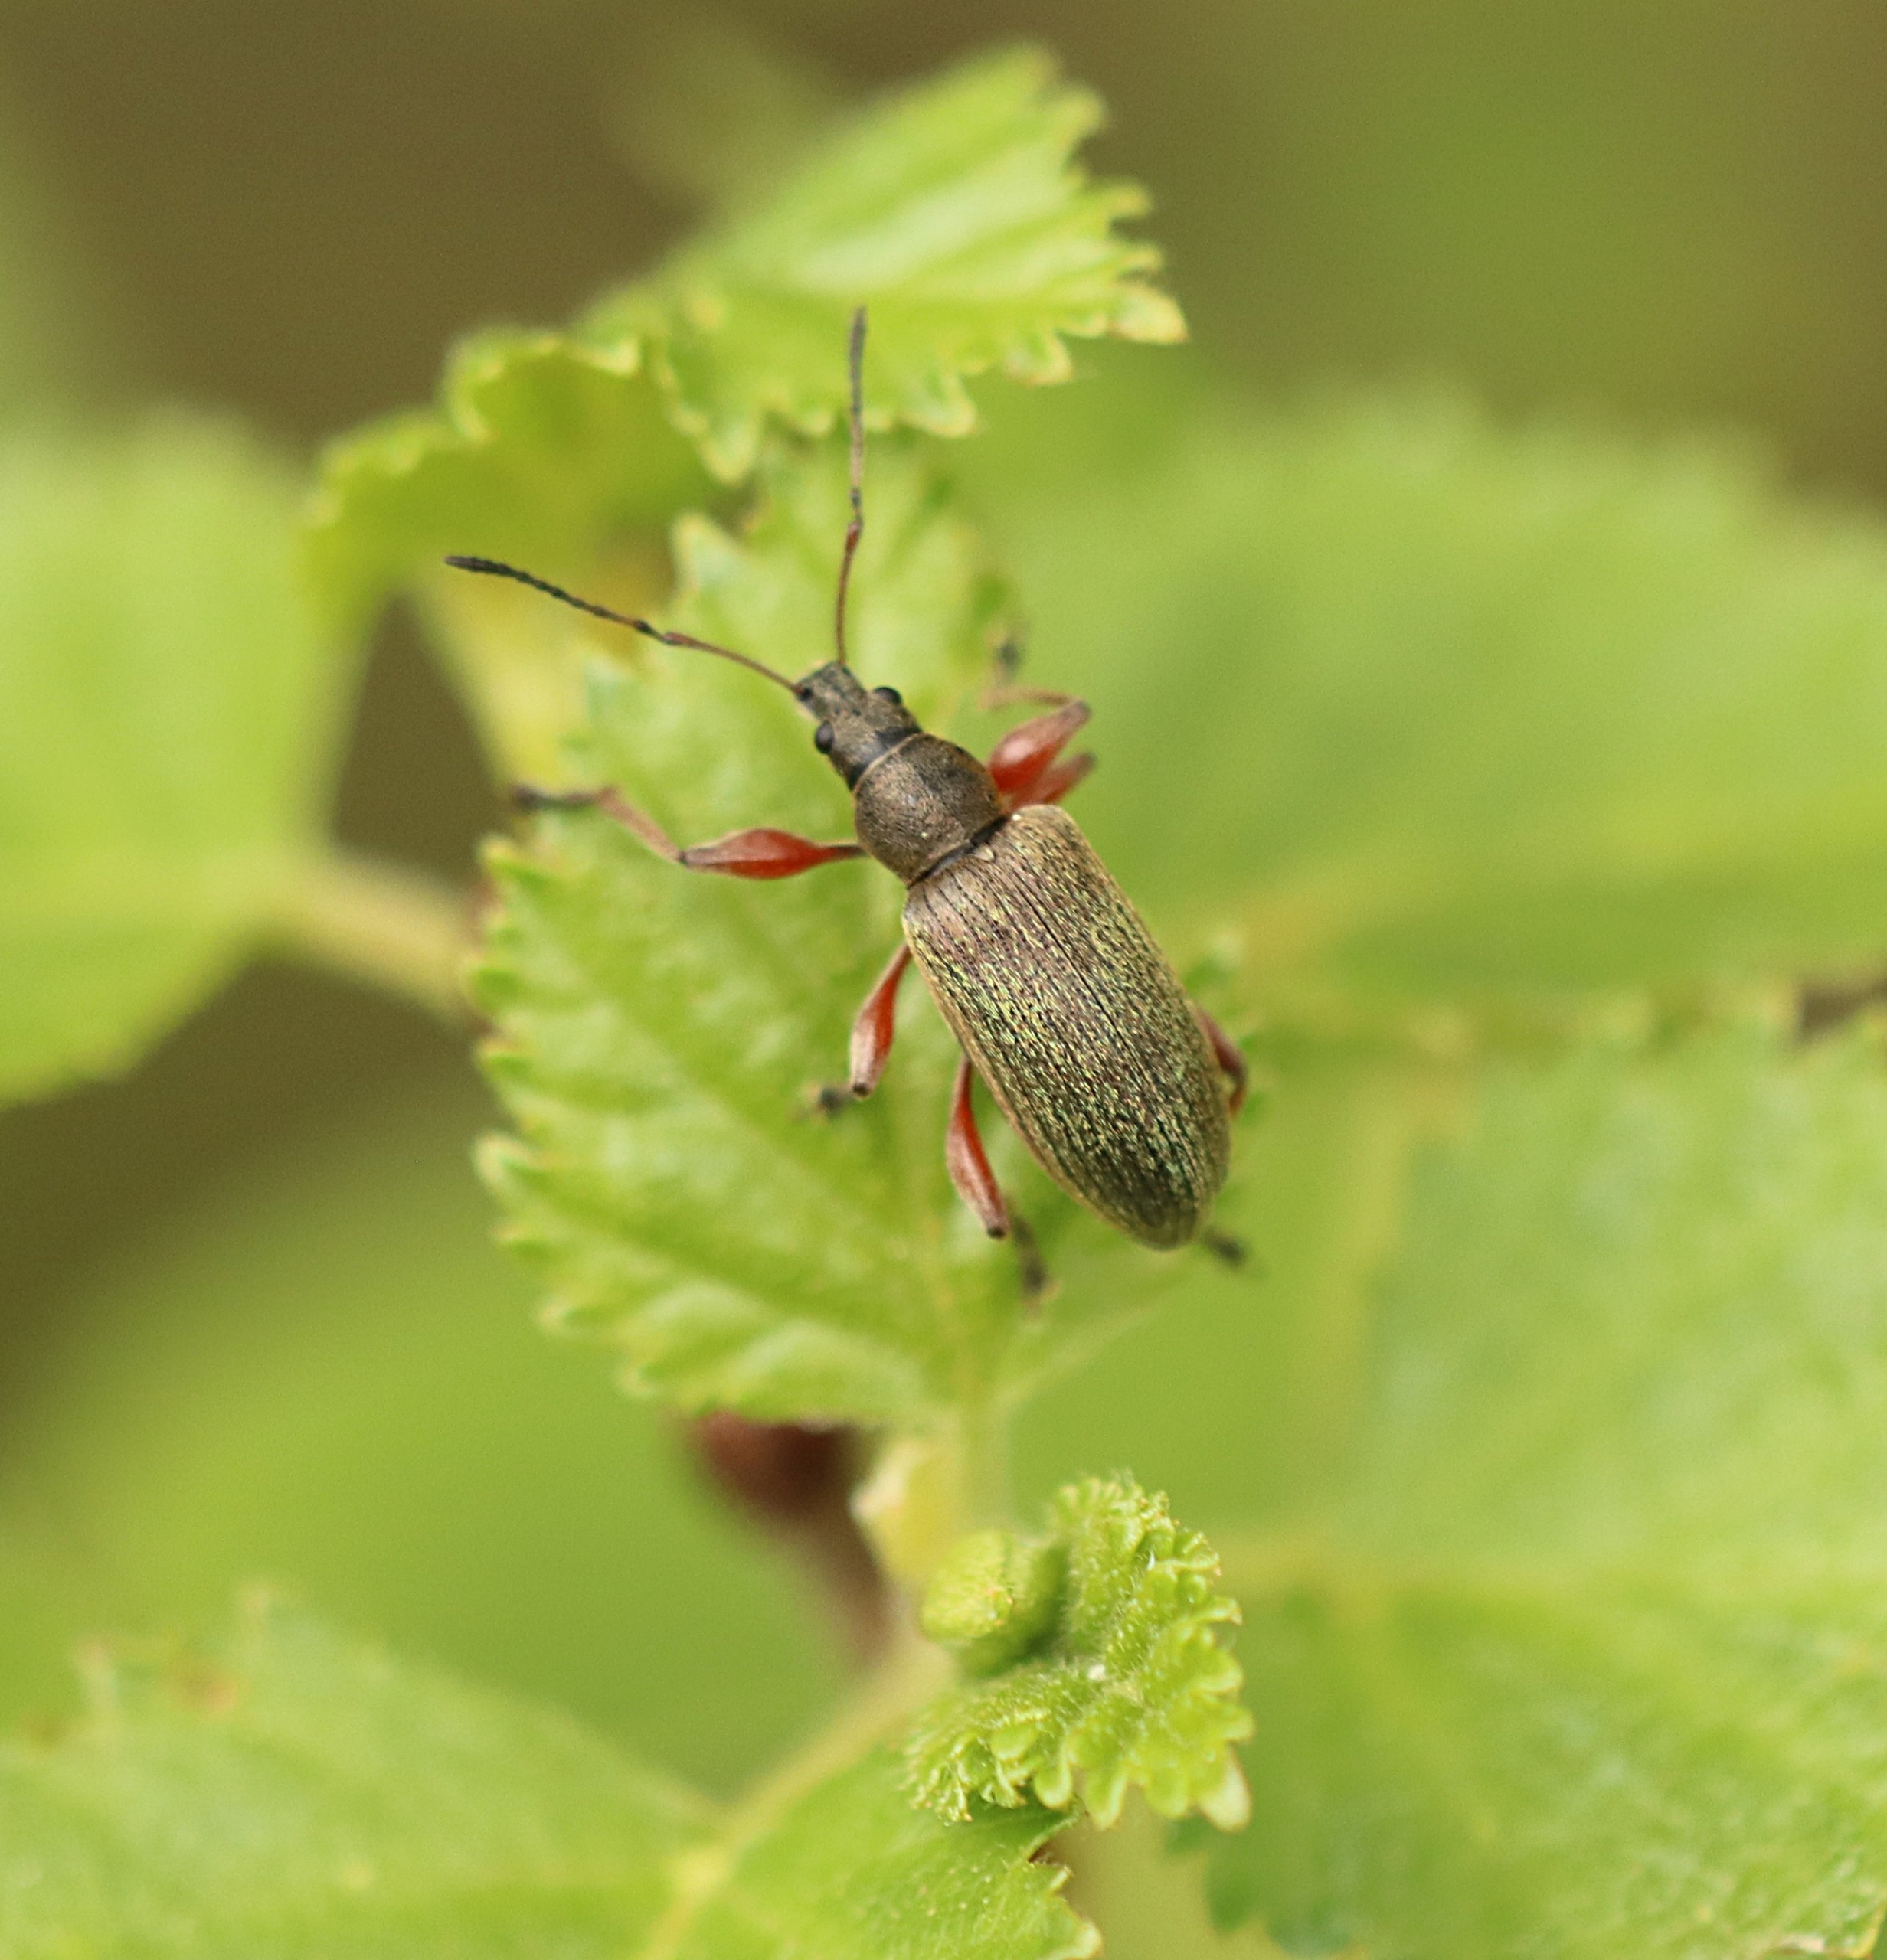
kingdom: Animalia
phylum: Arthropoda
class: Insecta
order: Coleoptera
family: Curculionidae
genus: Phyllobius
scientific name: Phyllobius glaucus
